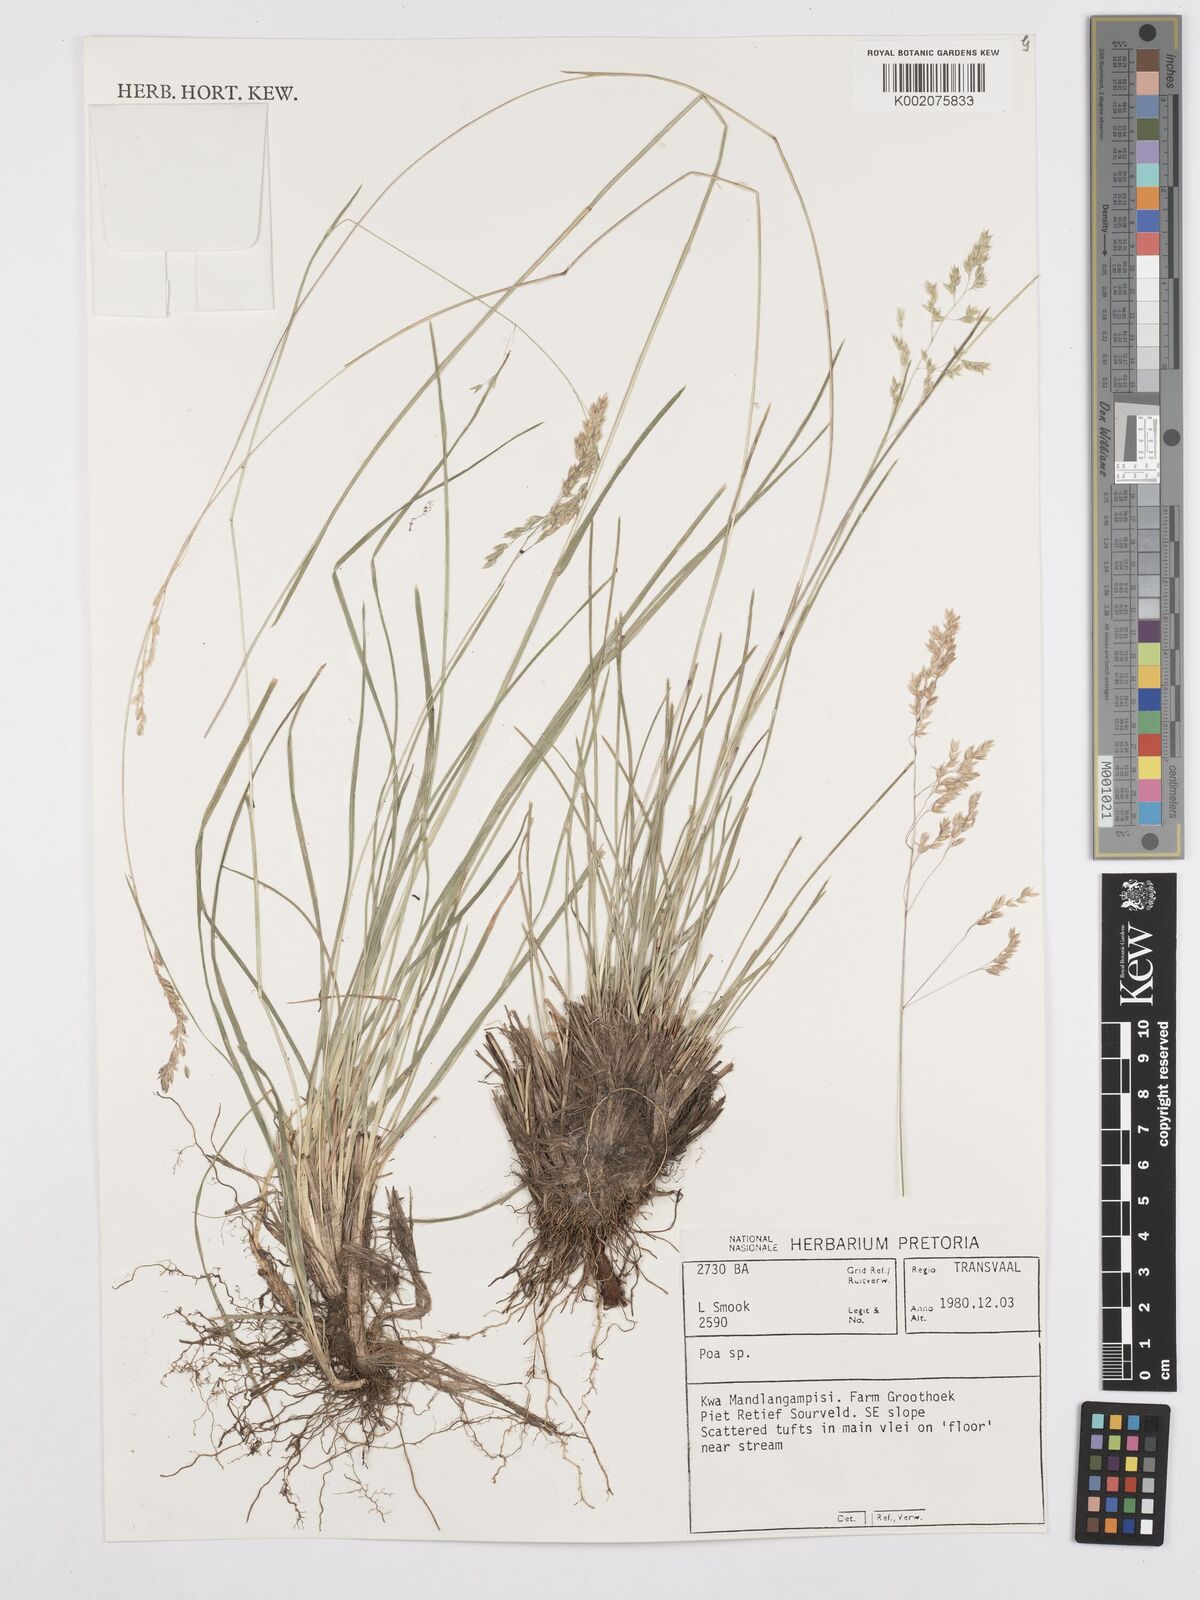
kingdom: Plantae
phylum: Tracheophyta
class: Liliopsida
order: Poales
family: Poaceae
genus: Poa
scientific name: Poa
